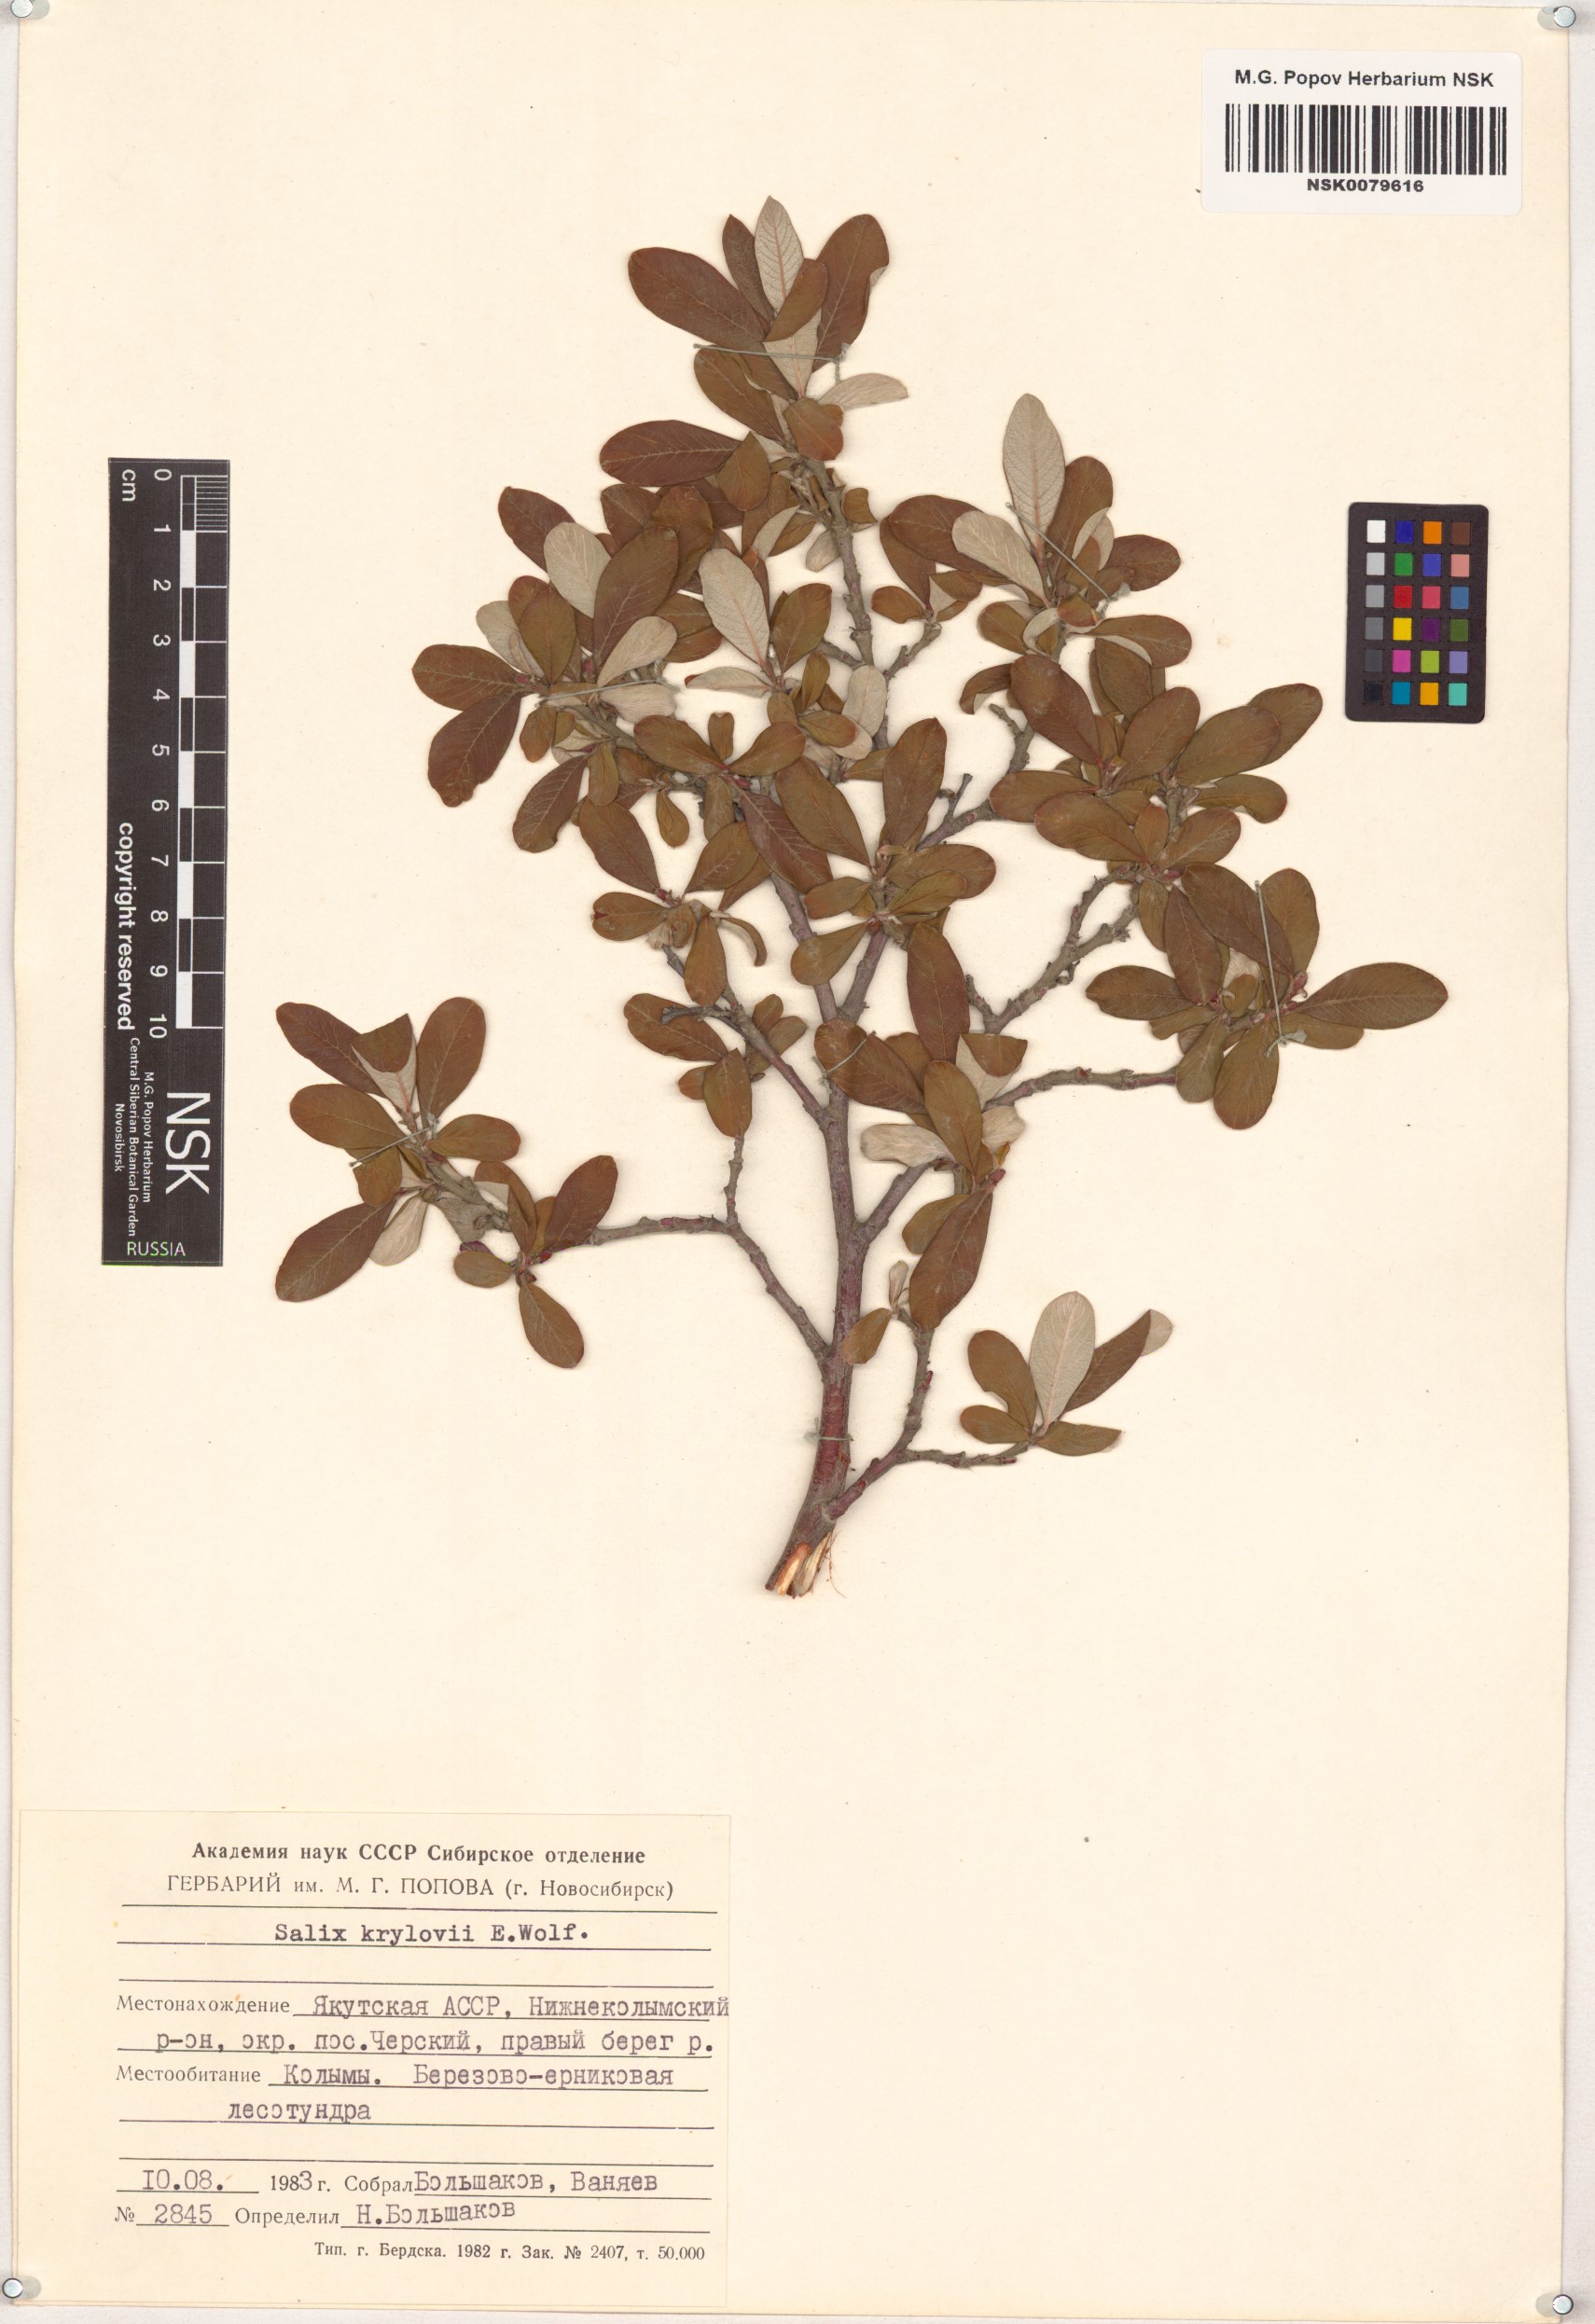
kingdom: Plantae
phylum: Tracheophyta
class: Magnoliopsida
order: Malpighiales
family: Salicaceae
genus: Salix
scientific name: Salix krylovii
